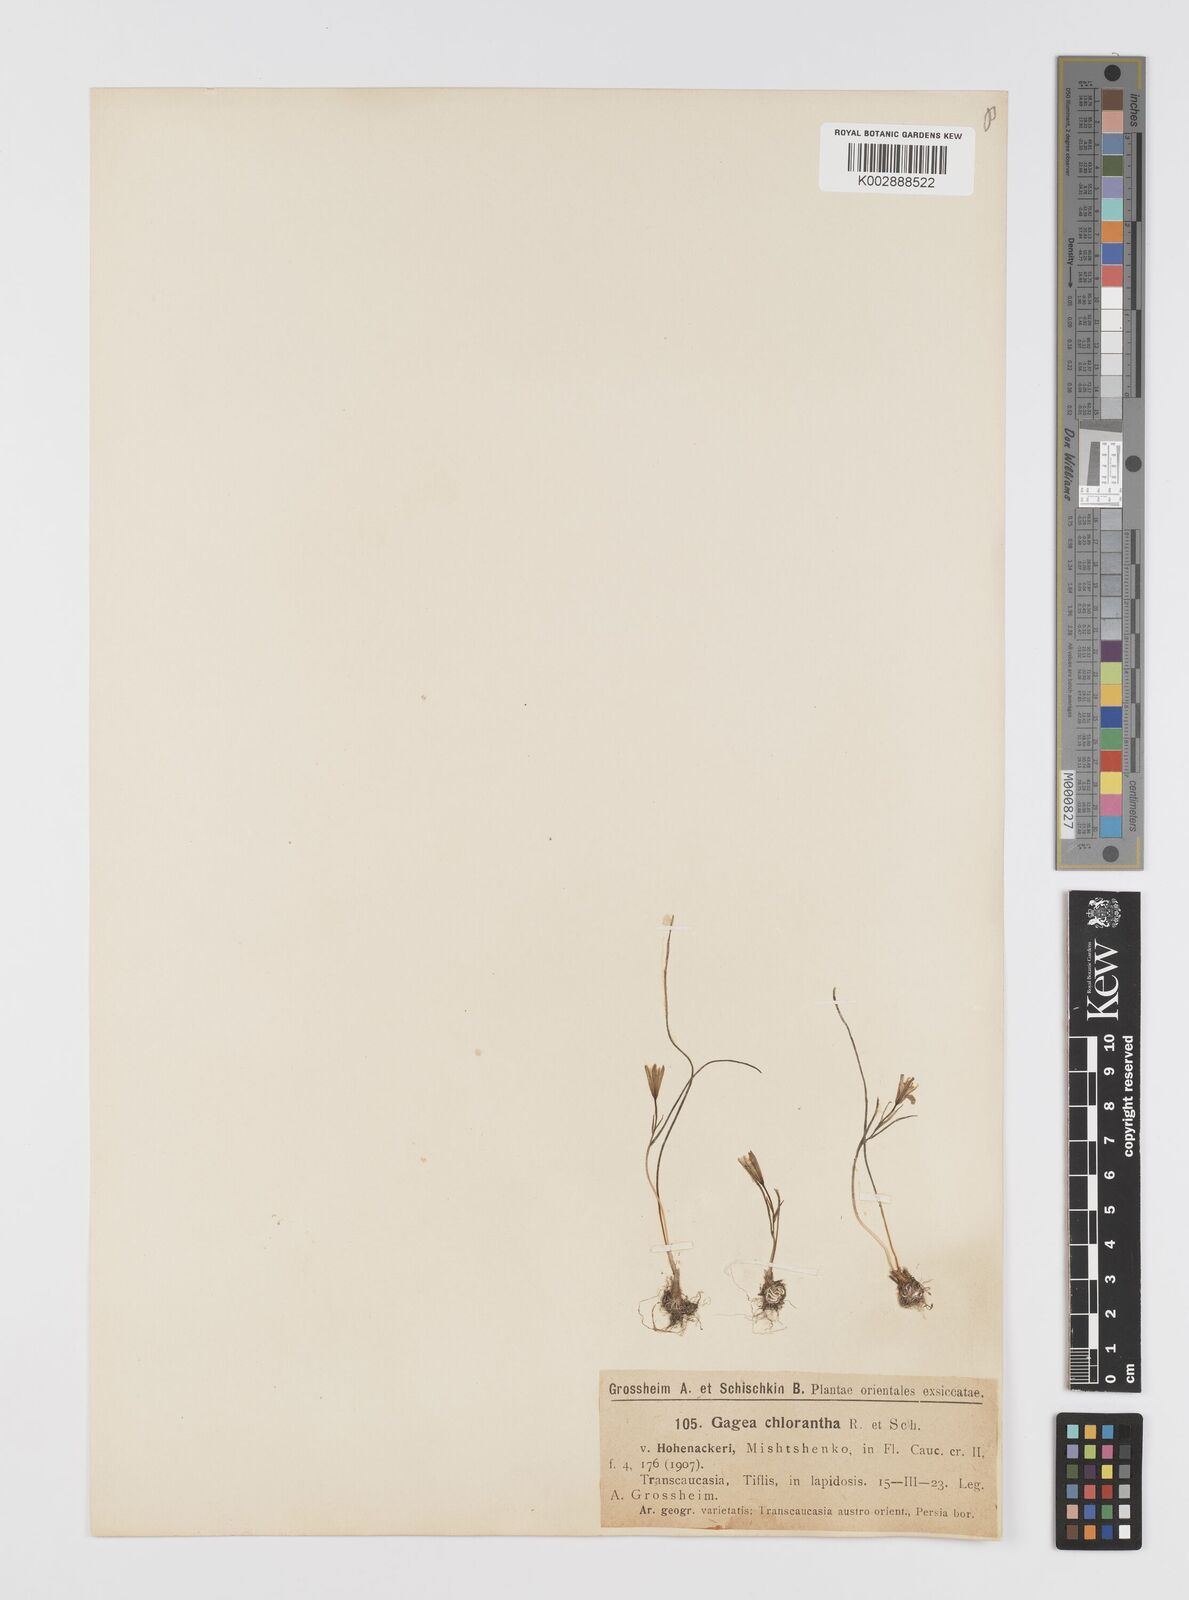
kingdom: Plantae
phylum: Tracheophyta
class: Liliopsida
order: Liliales
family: Liliaceae
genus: Gagea
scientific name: Gagea chlorantha
